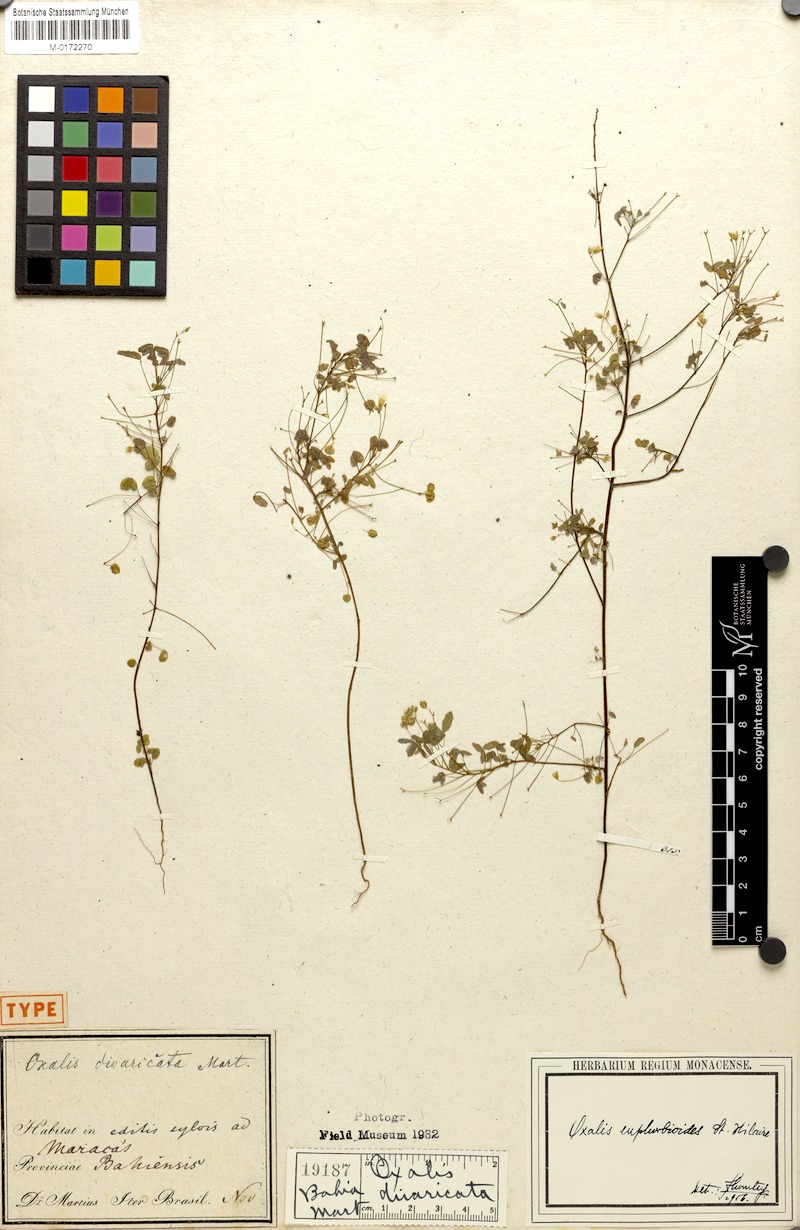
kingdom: Plantae
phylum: Tracheophyta
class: Magnoliopsida
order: Oxalidales
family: Oxalidaceae
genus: Oxalis
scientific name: Oxalis divaricata
